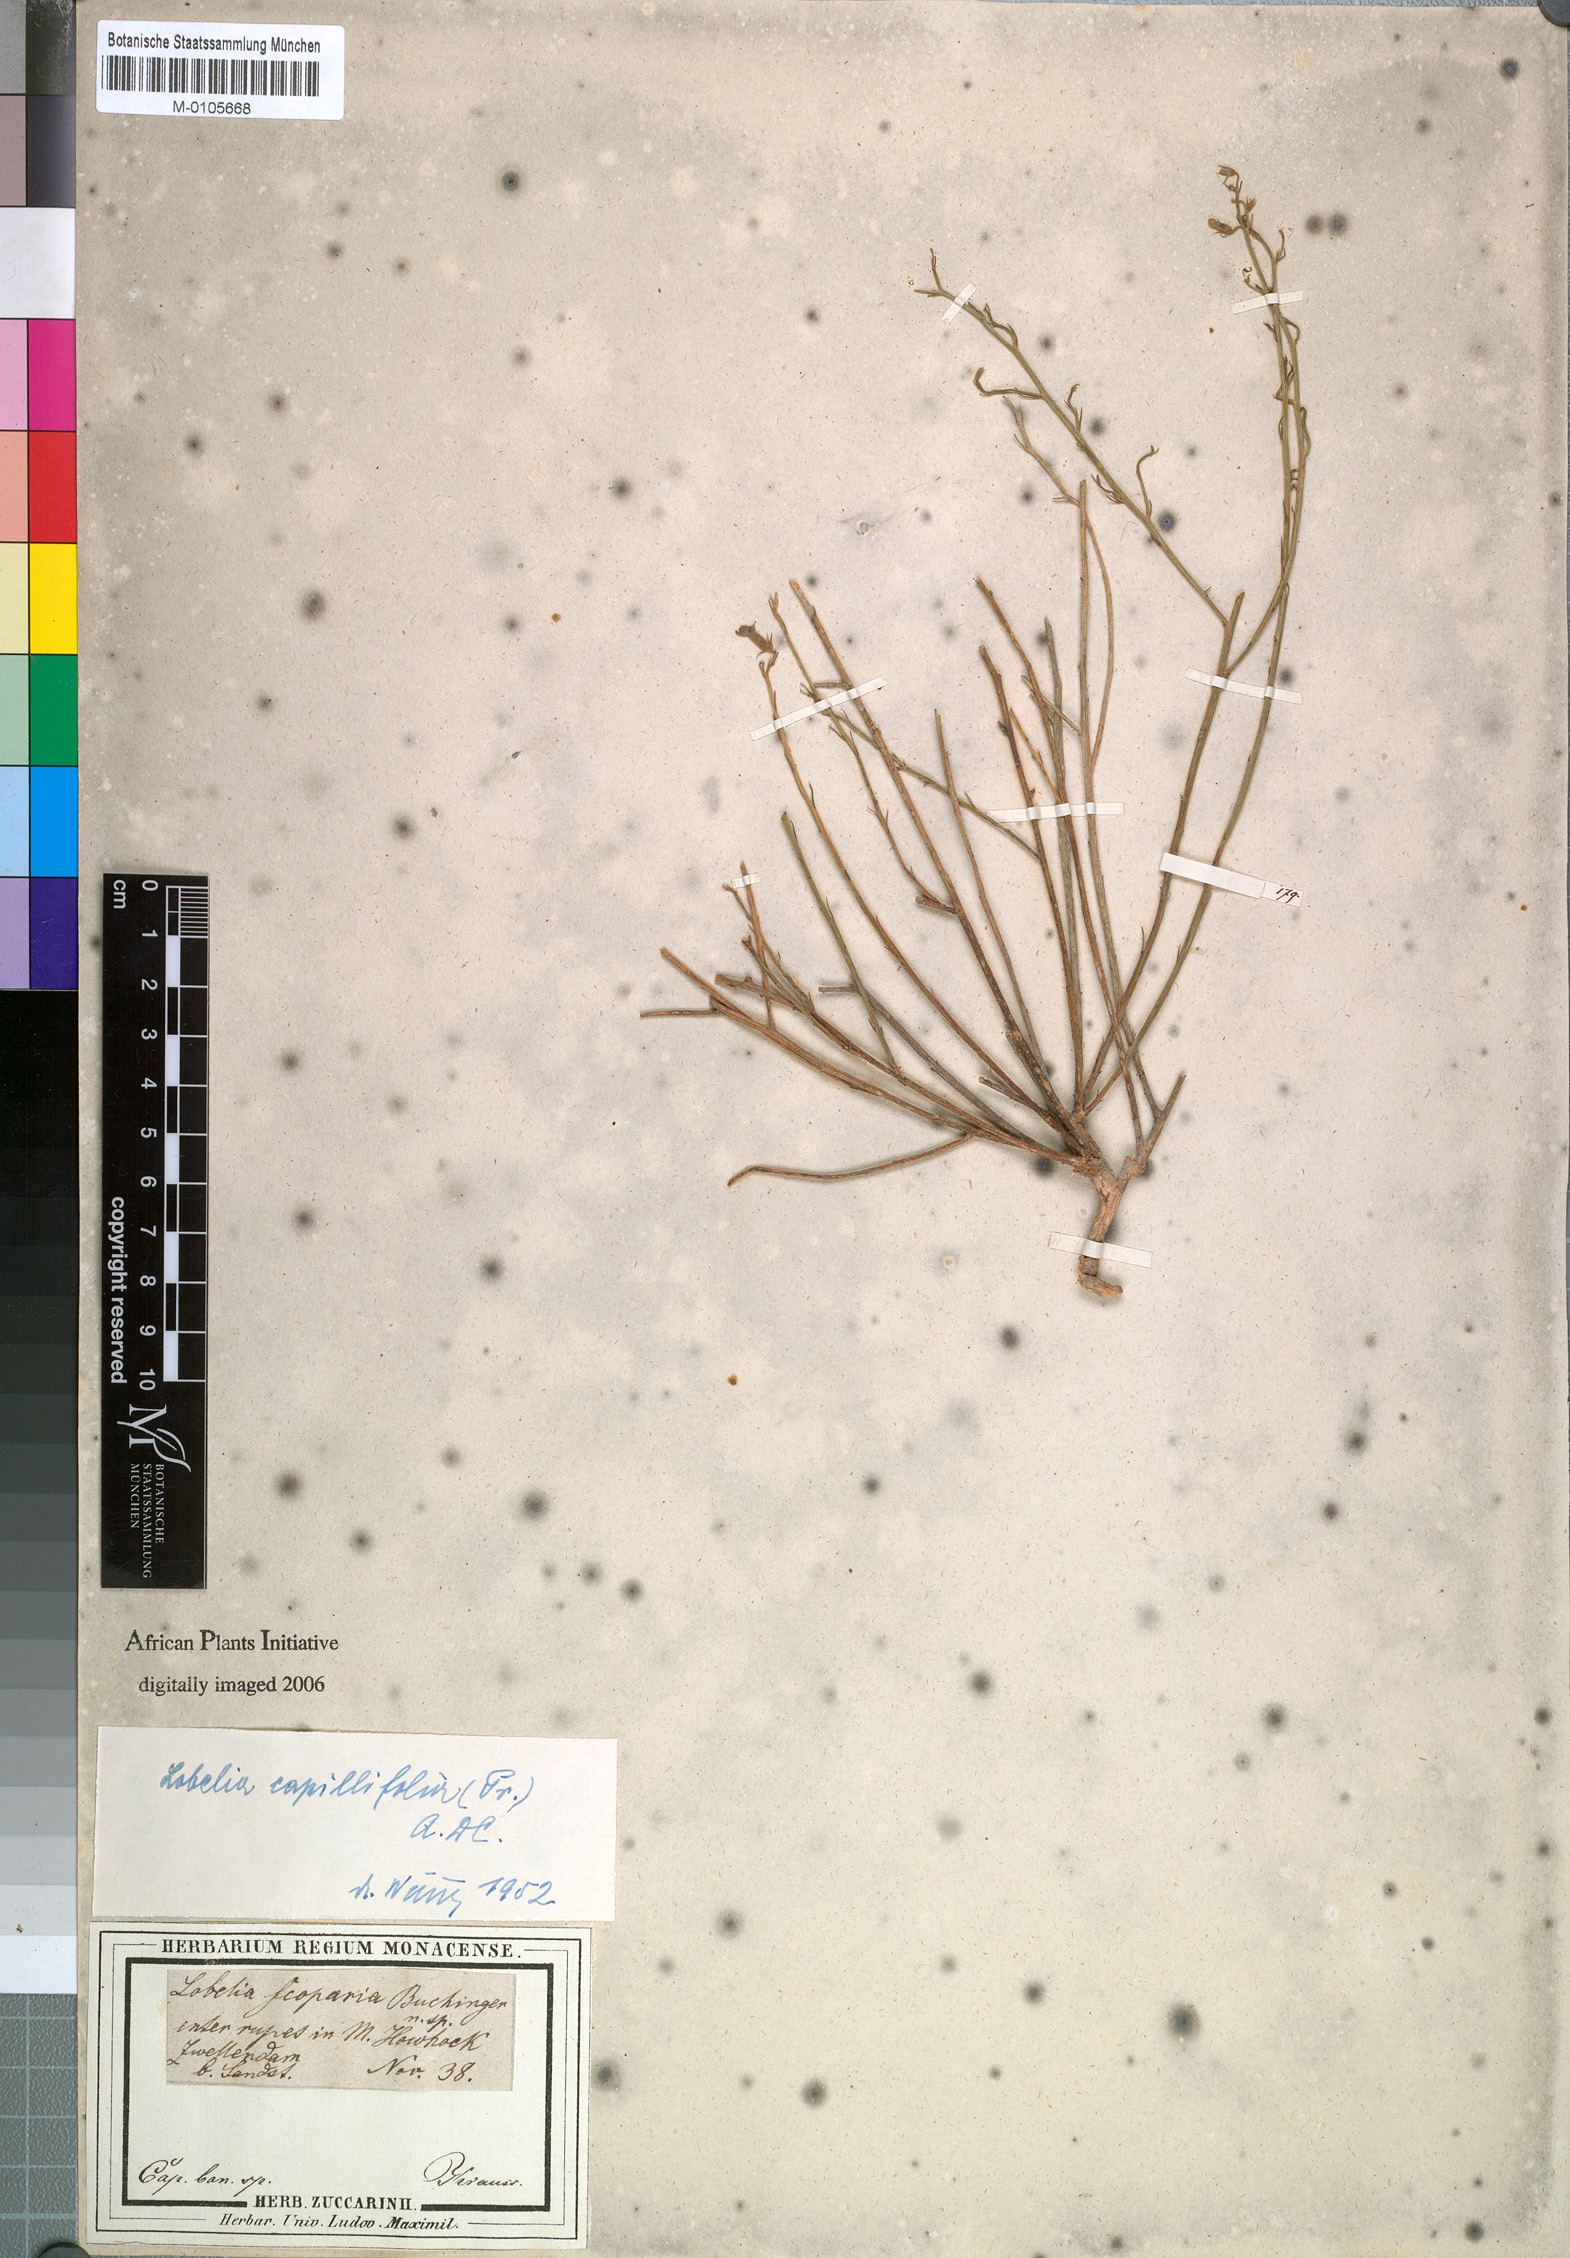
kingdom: Plantae
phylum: Tracheophyta
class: Magnoliopsida
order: Asterales
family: Campanulaceae
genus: Lobelia
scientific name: Lobelia capillifolia
